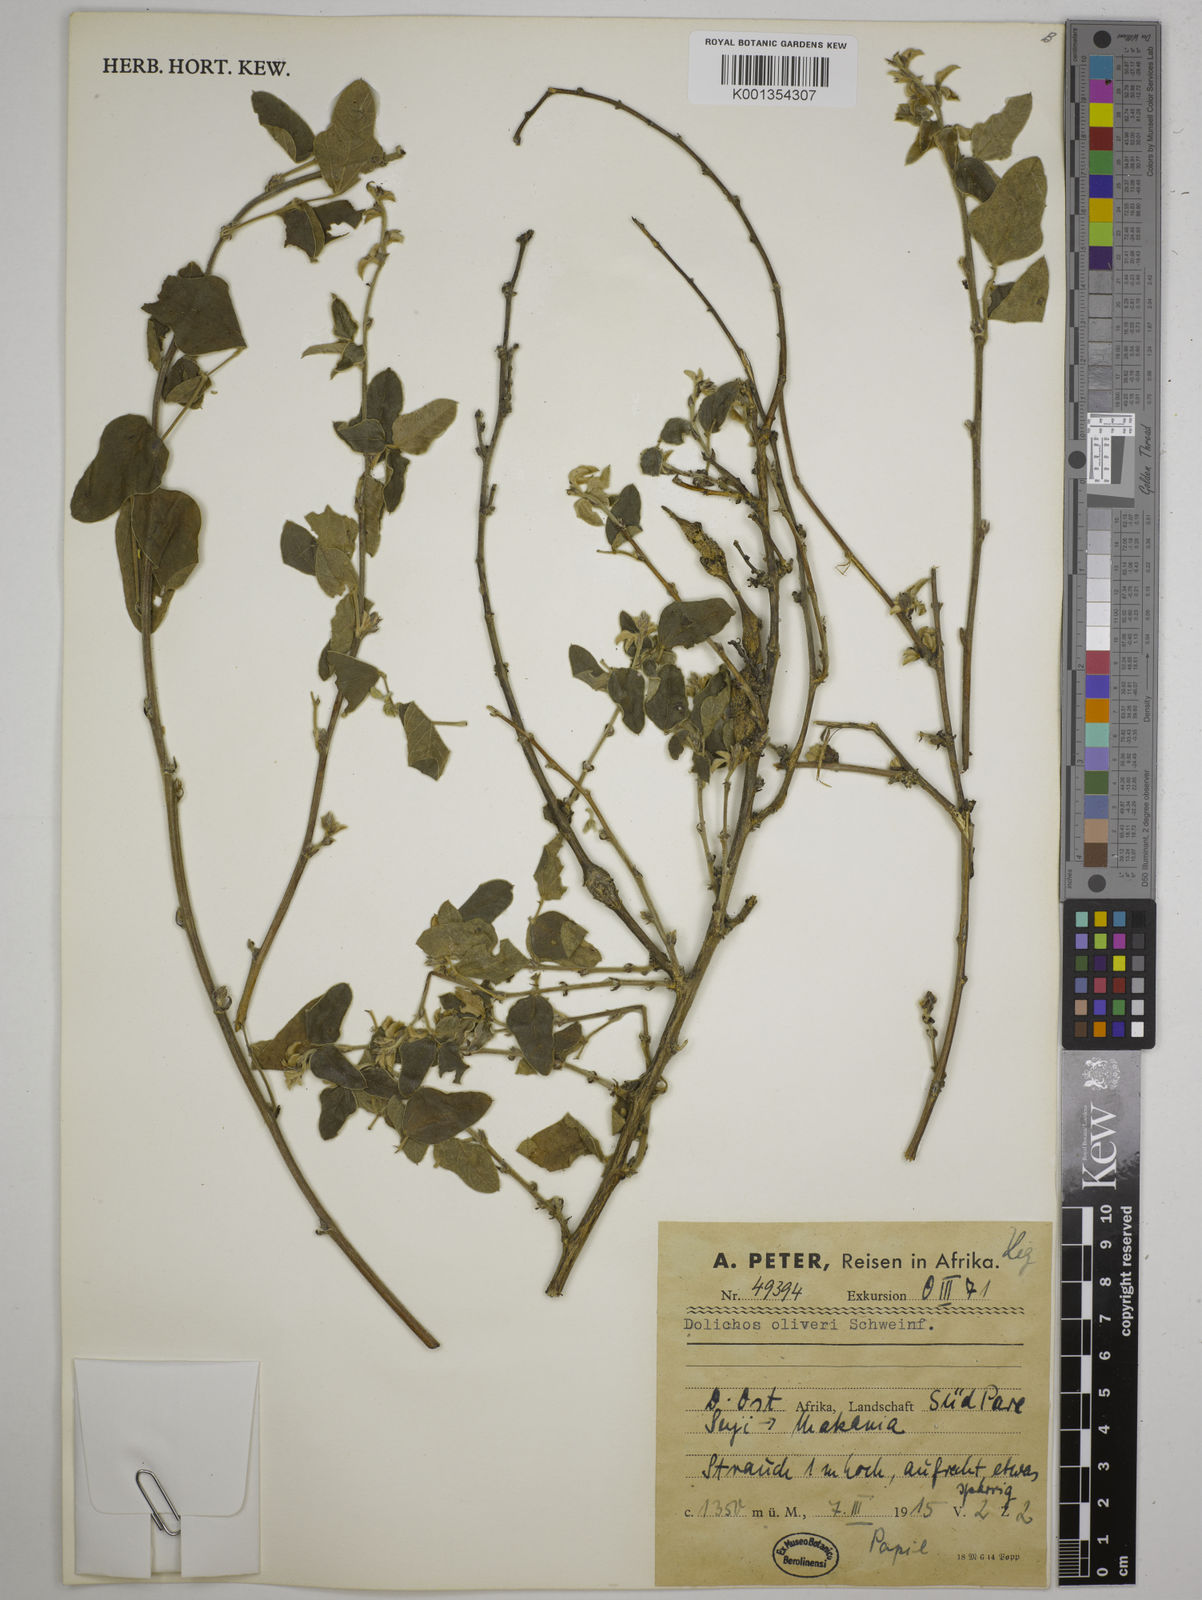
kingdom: Plantae
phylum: Tracheophyta
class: Magnoliopsida
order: Fabales
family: Fabaceae
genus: Dolichos
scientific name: Dolichos oliveri
